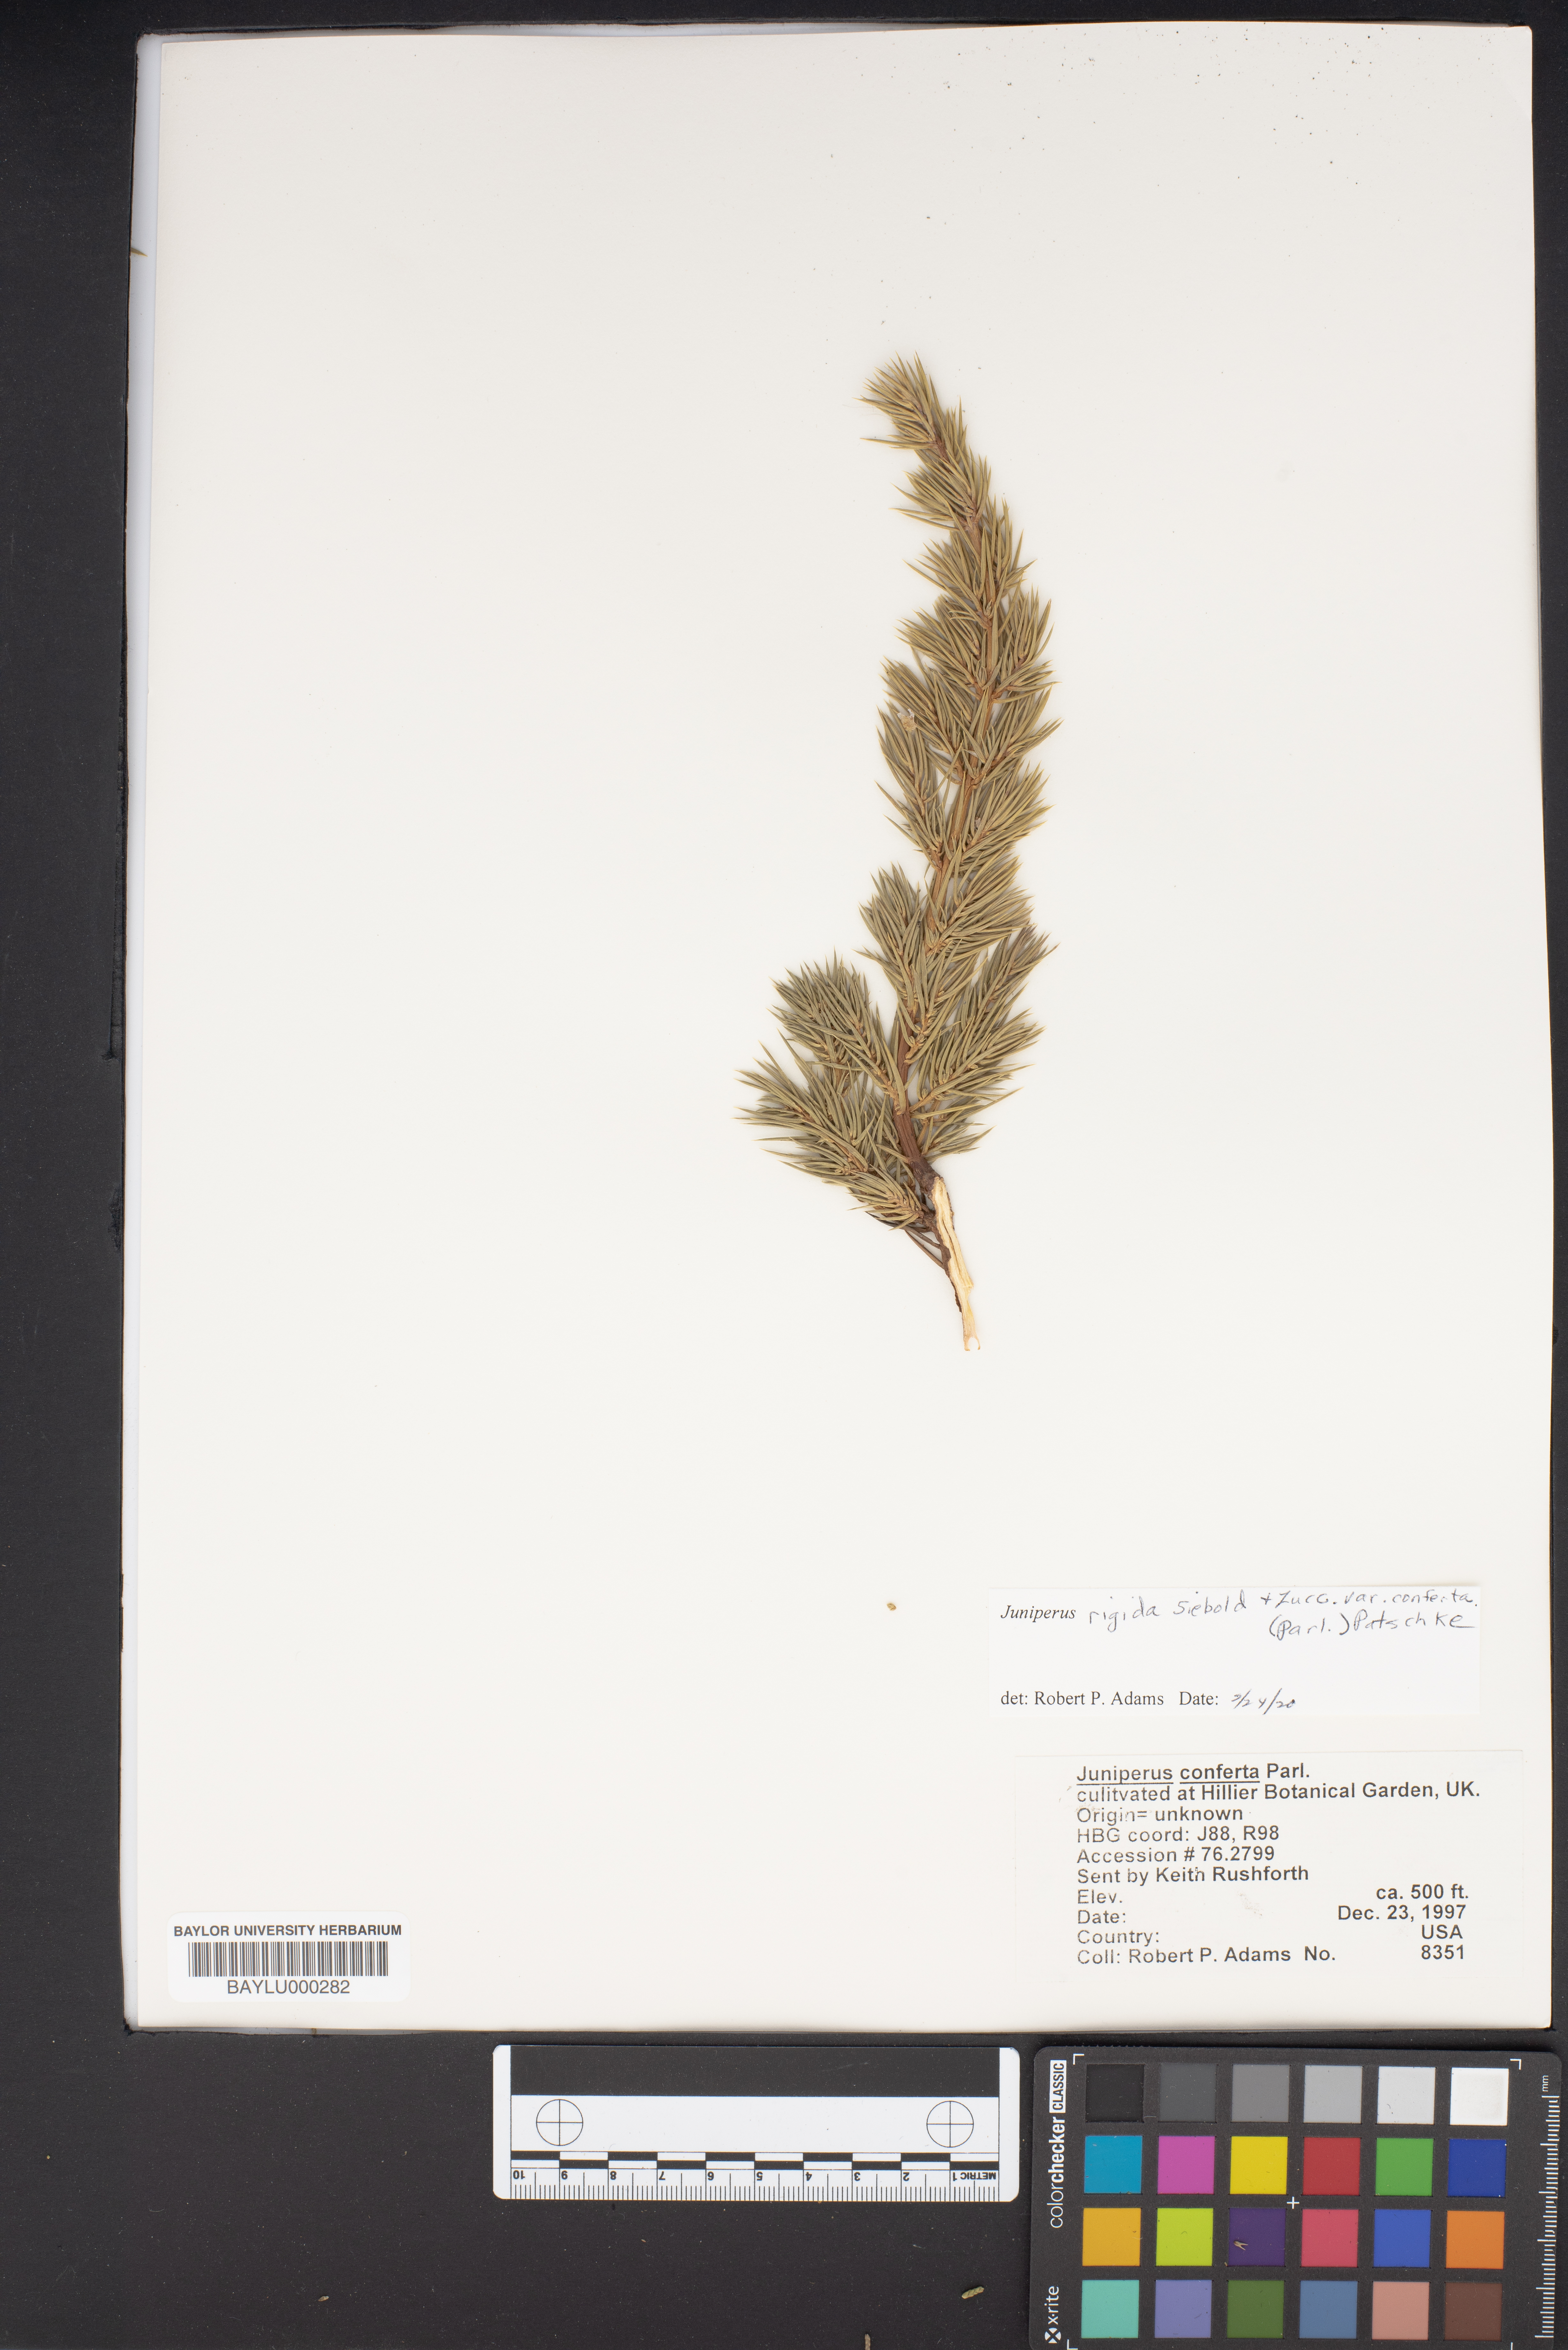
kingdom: Plantae
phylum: Tracheophyta
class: Pinopsida
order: Pinales
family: Cupressaceae
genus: Juniperus
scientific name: Juniperus rigida
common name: Needle juniper
